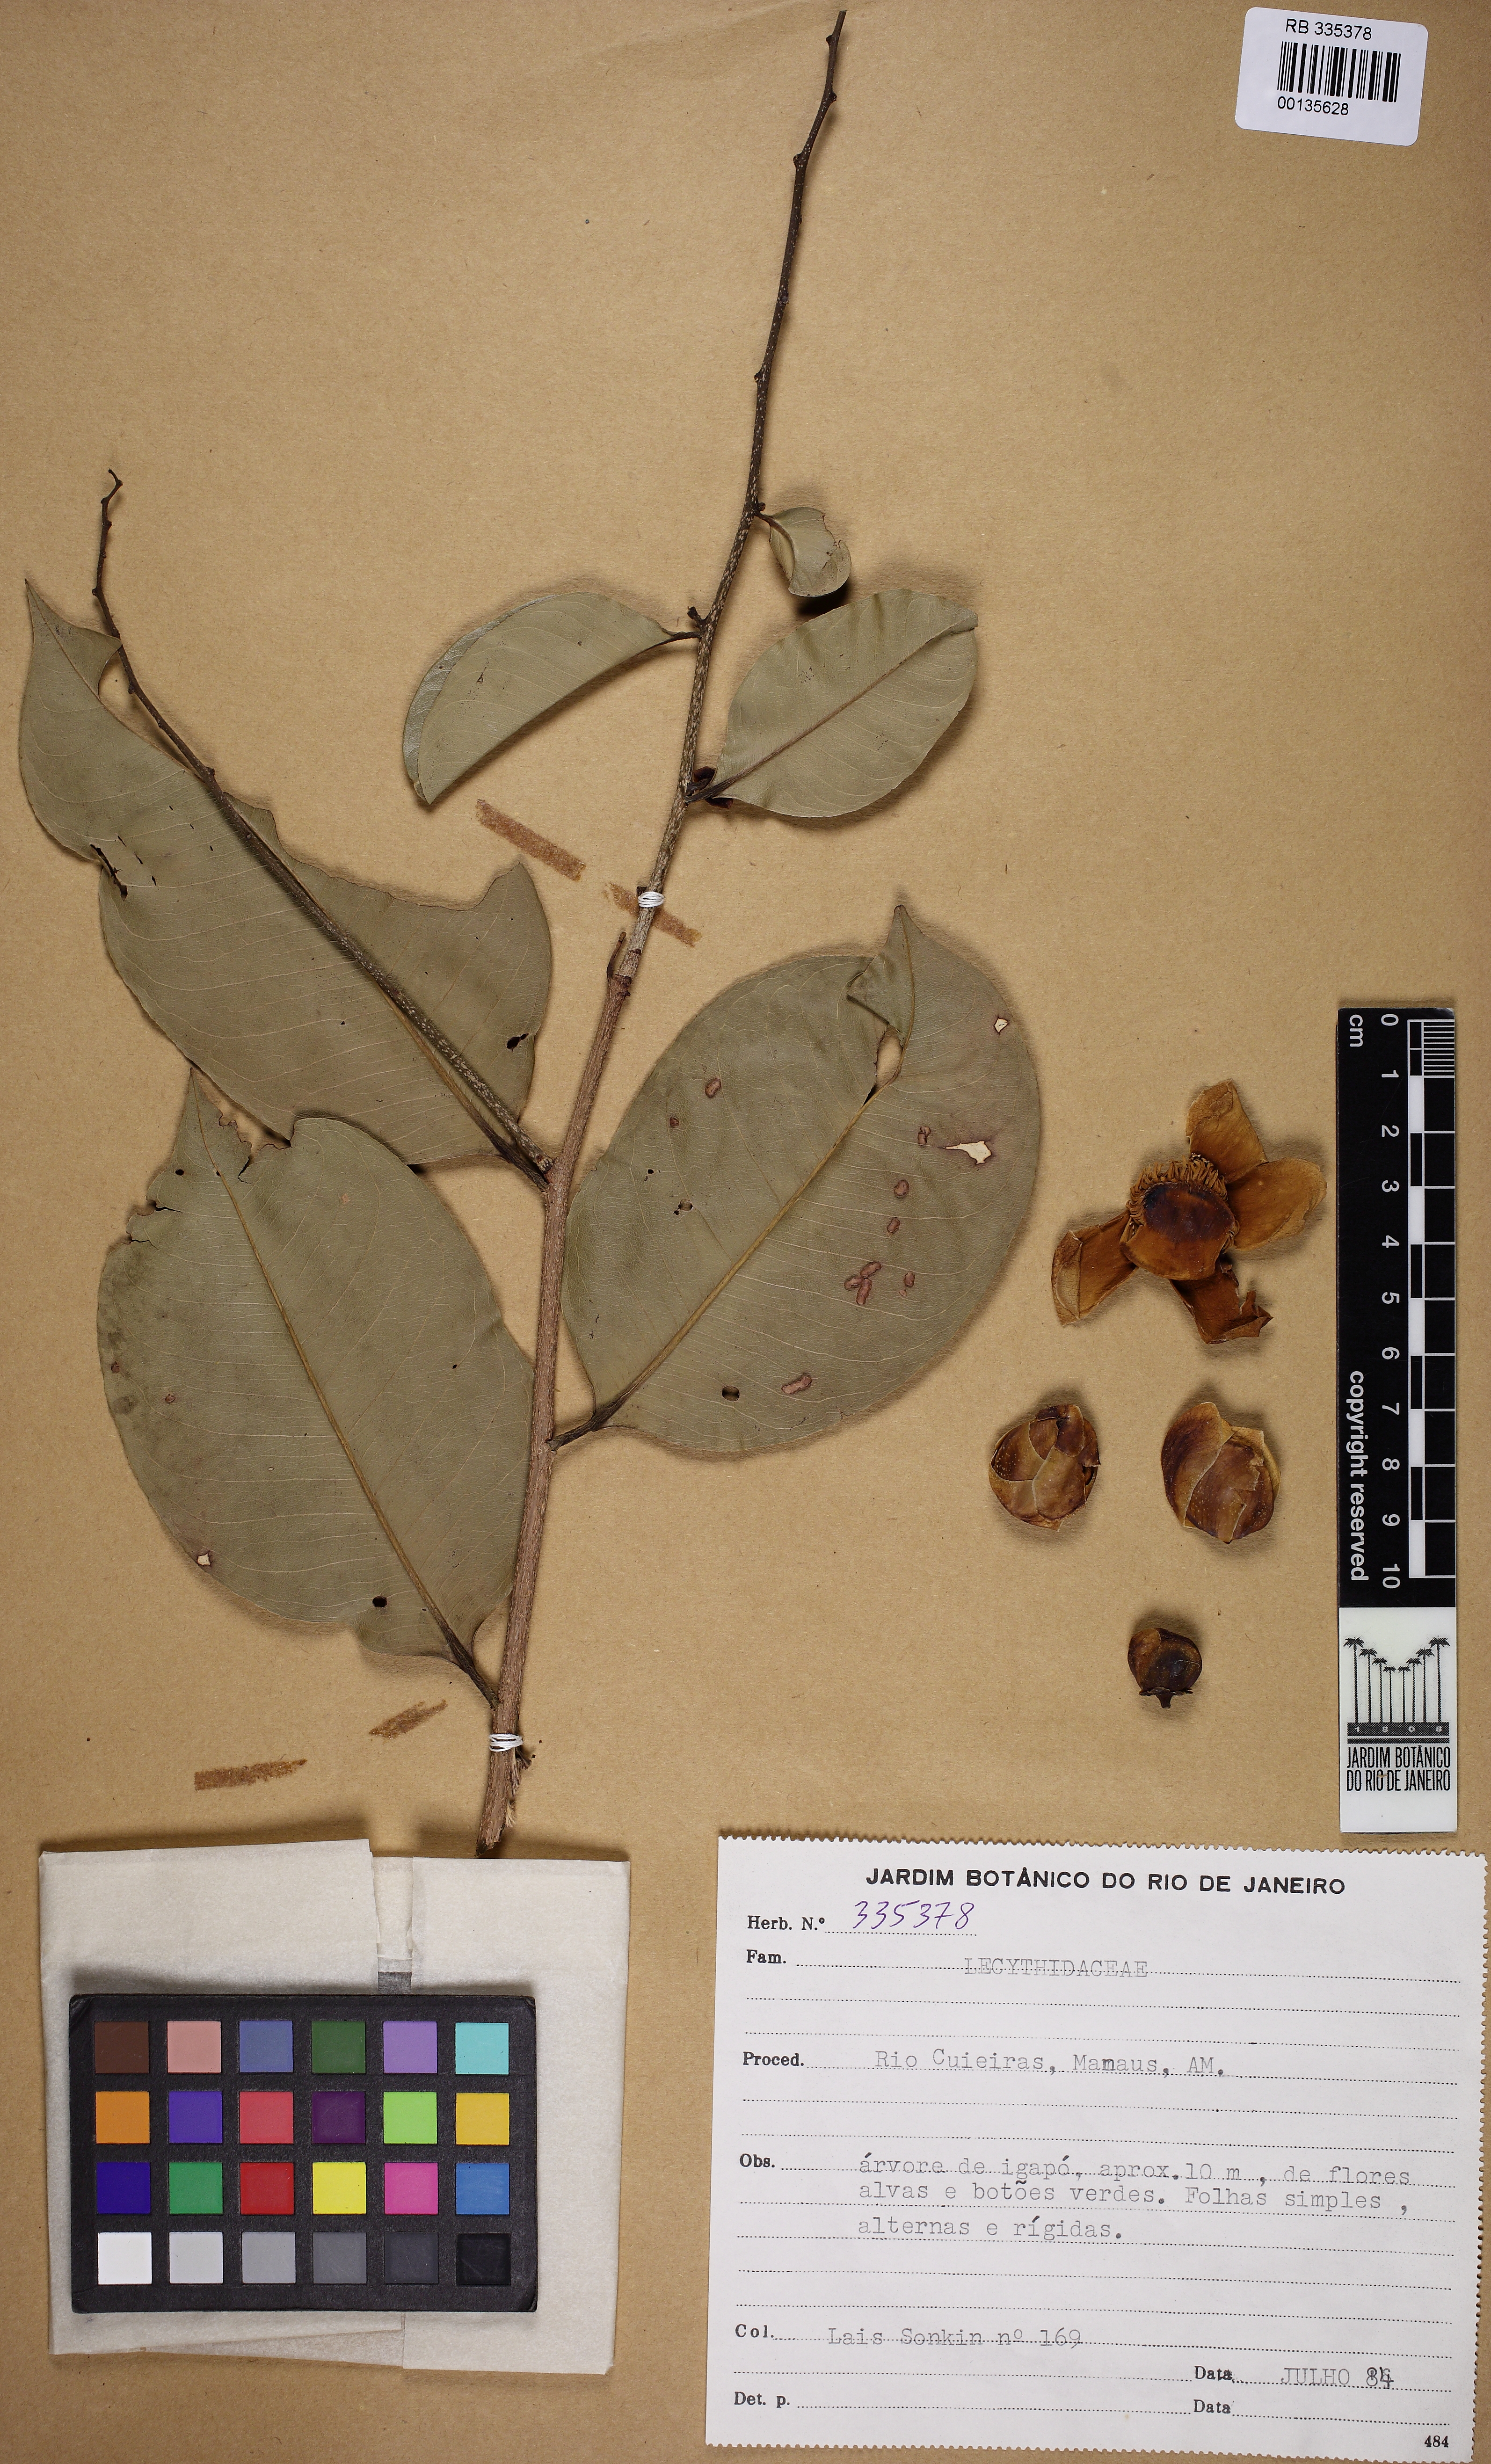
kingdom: Plantae
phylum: Tracheophyta
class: Magnoliopsida
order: Ericales
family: Lecythidaceae
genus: Eschweilera
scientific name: Eschweilera tenuifolia
